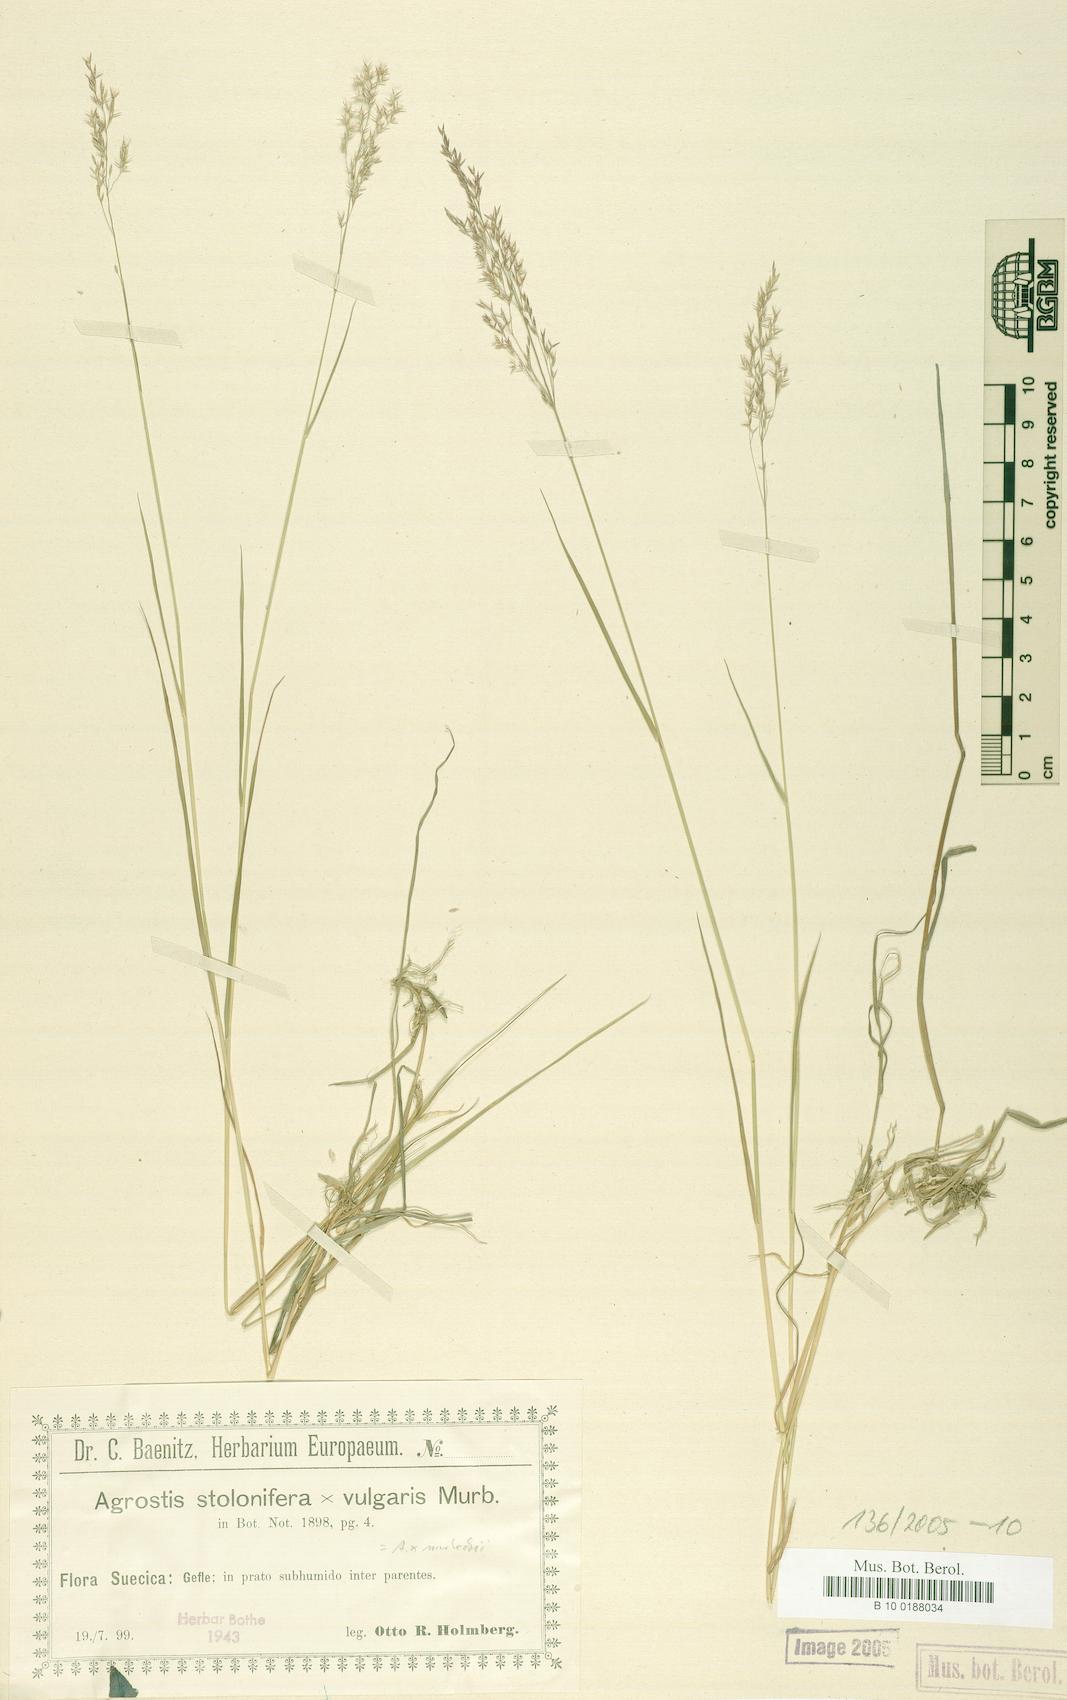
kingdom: Plantae
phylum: Tracheophyta
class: Liliopsida
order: Poales
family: Poaceae
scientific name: Poaceae
